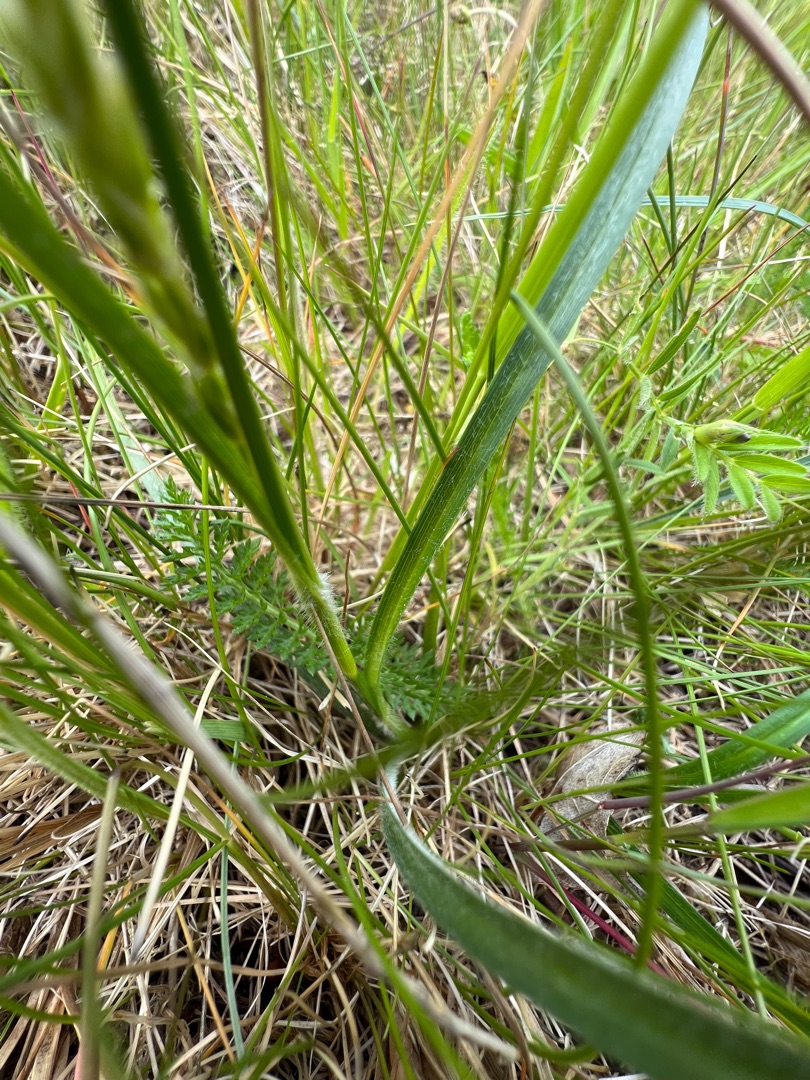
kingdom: Plantae
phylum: Tracheophyta
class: Liliopsida
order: Poales
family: Cyperaceae
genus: Carex
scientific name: Carex hirta
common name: Håret star
